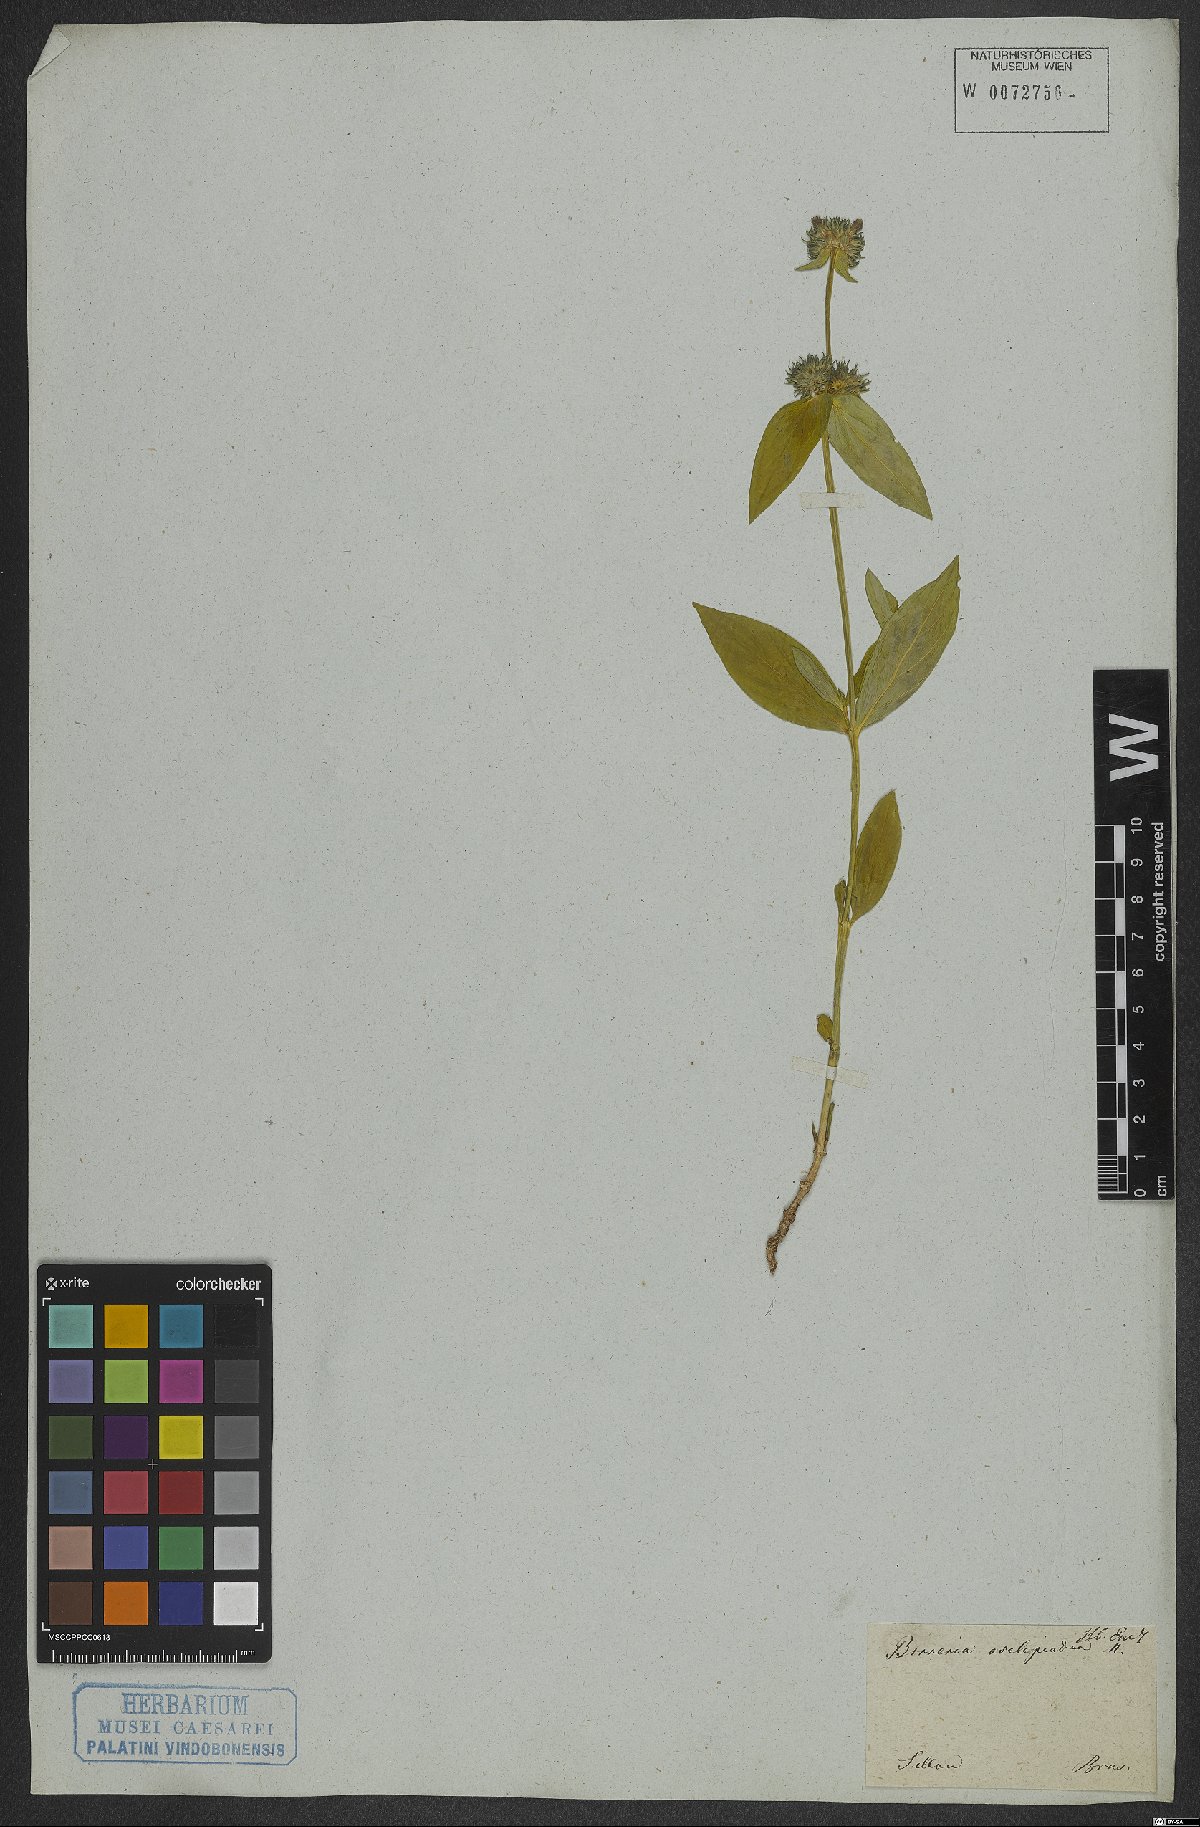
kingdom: Plantae
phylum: Tracheophyta
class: Magnoliopsida
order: Gentianales
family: Rubiaceae
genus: Spermacoce
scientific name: Spermacoce poaya
